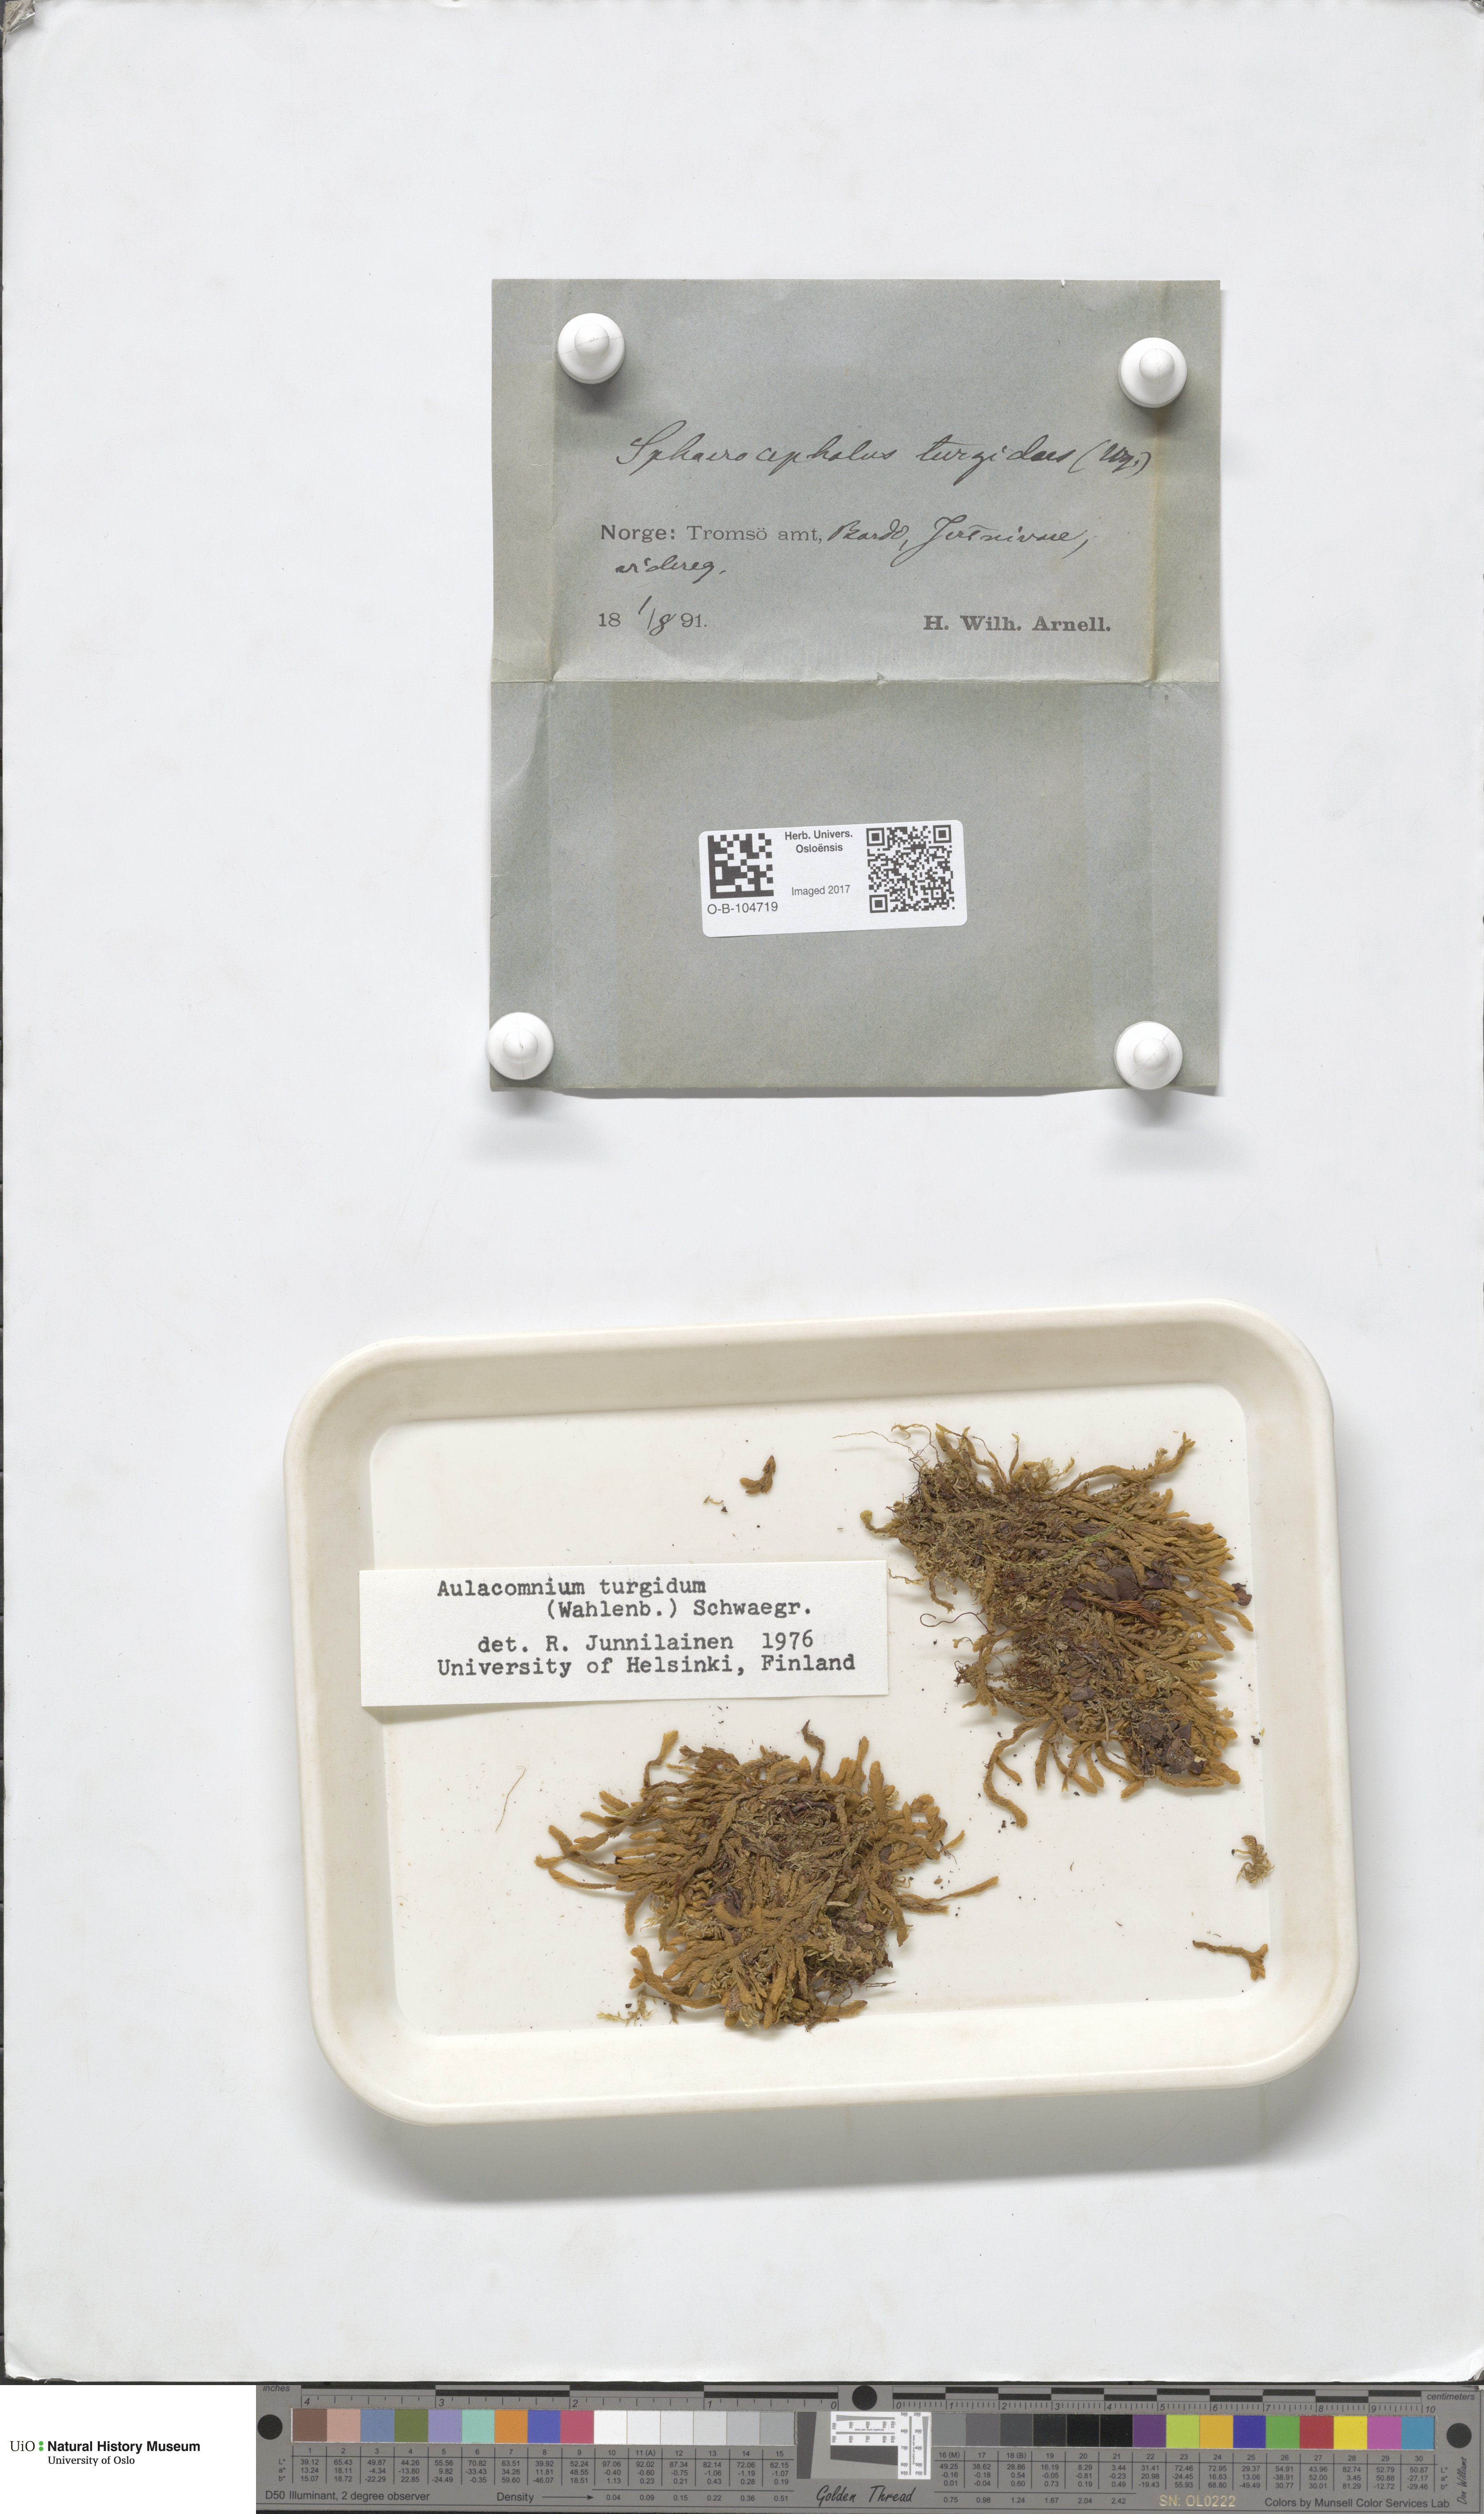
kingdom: Plantae
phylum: Bryophyta
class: Bryopsida
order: Aulacomniales
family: Aulacomniaceae
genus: Aulacomnium
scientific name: Aulacomnium turgidum
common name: Mountain groove moss
